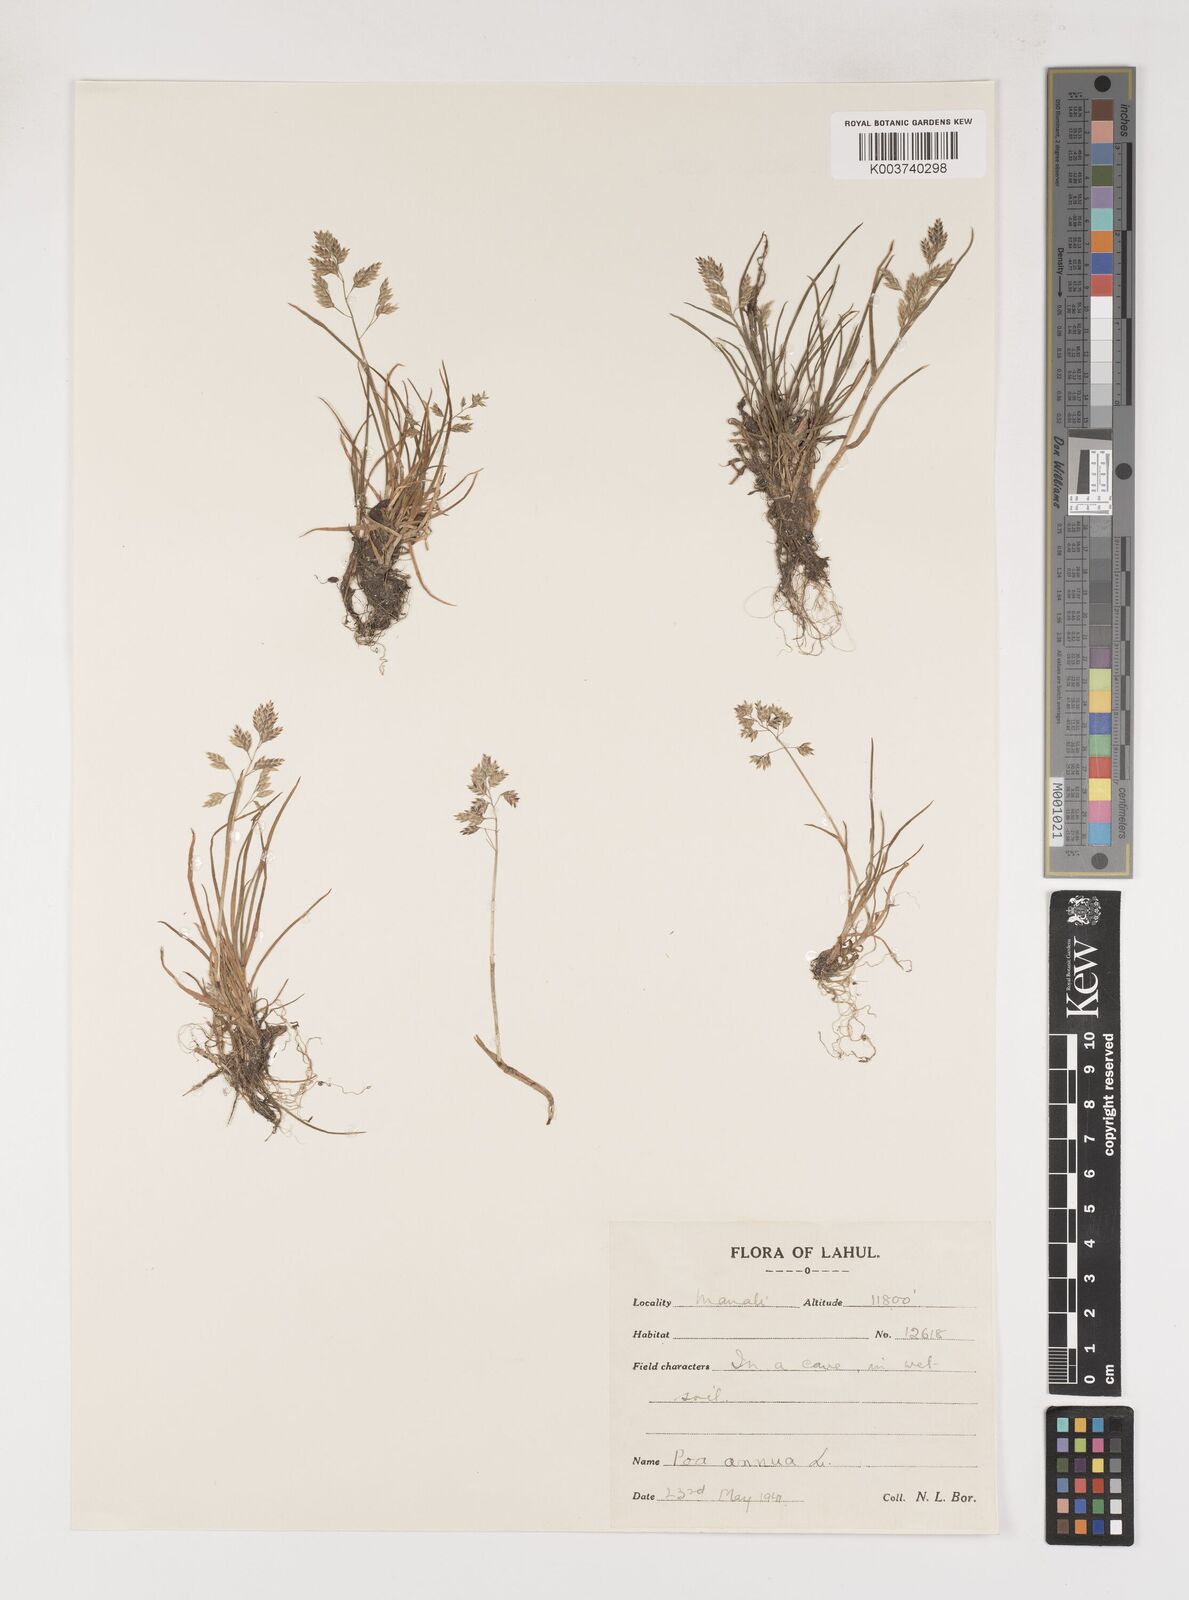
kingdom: Plantae
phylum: Tracheophyta
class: Liliopsida
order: Poales
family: Poaceae
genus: Poa
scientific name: Poa annua
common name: Annual bluegrass
